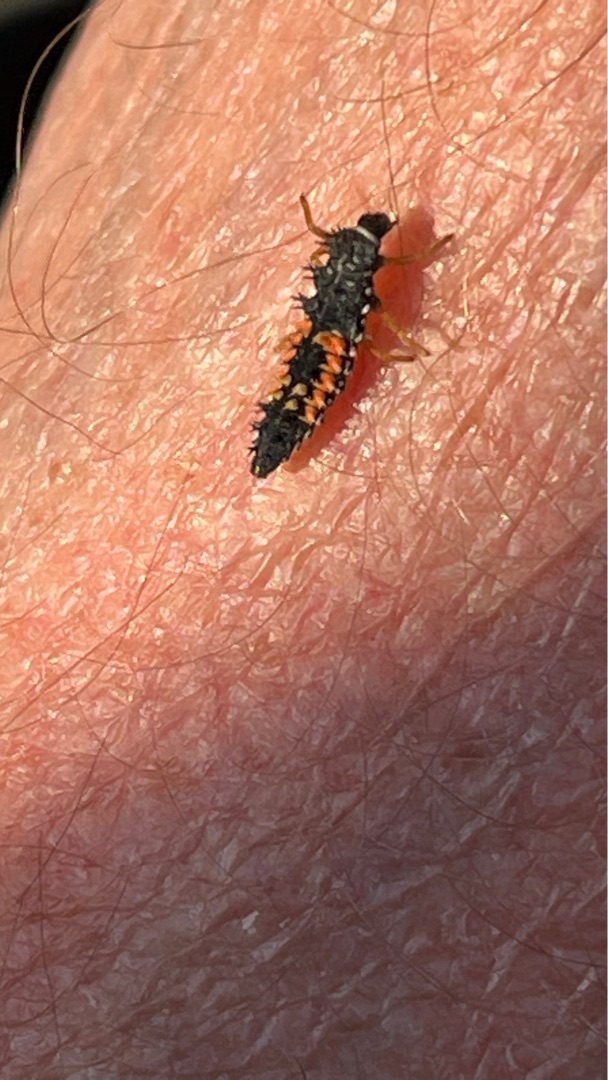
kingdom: Animalia
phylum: Arthropoda
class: Insecta
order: Coleoptera
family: Coccinellidae
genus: Harmonia
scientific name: Harmonia axyridis
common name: Harlekinmariehøne
